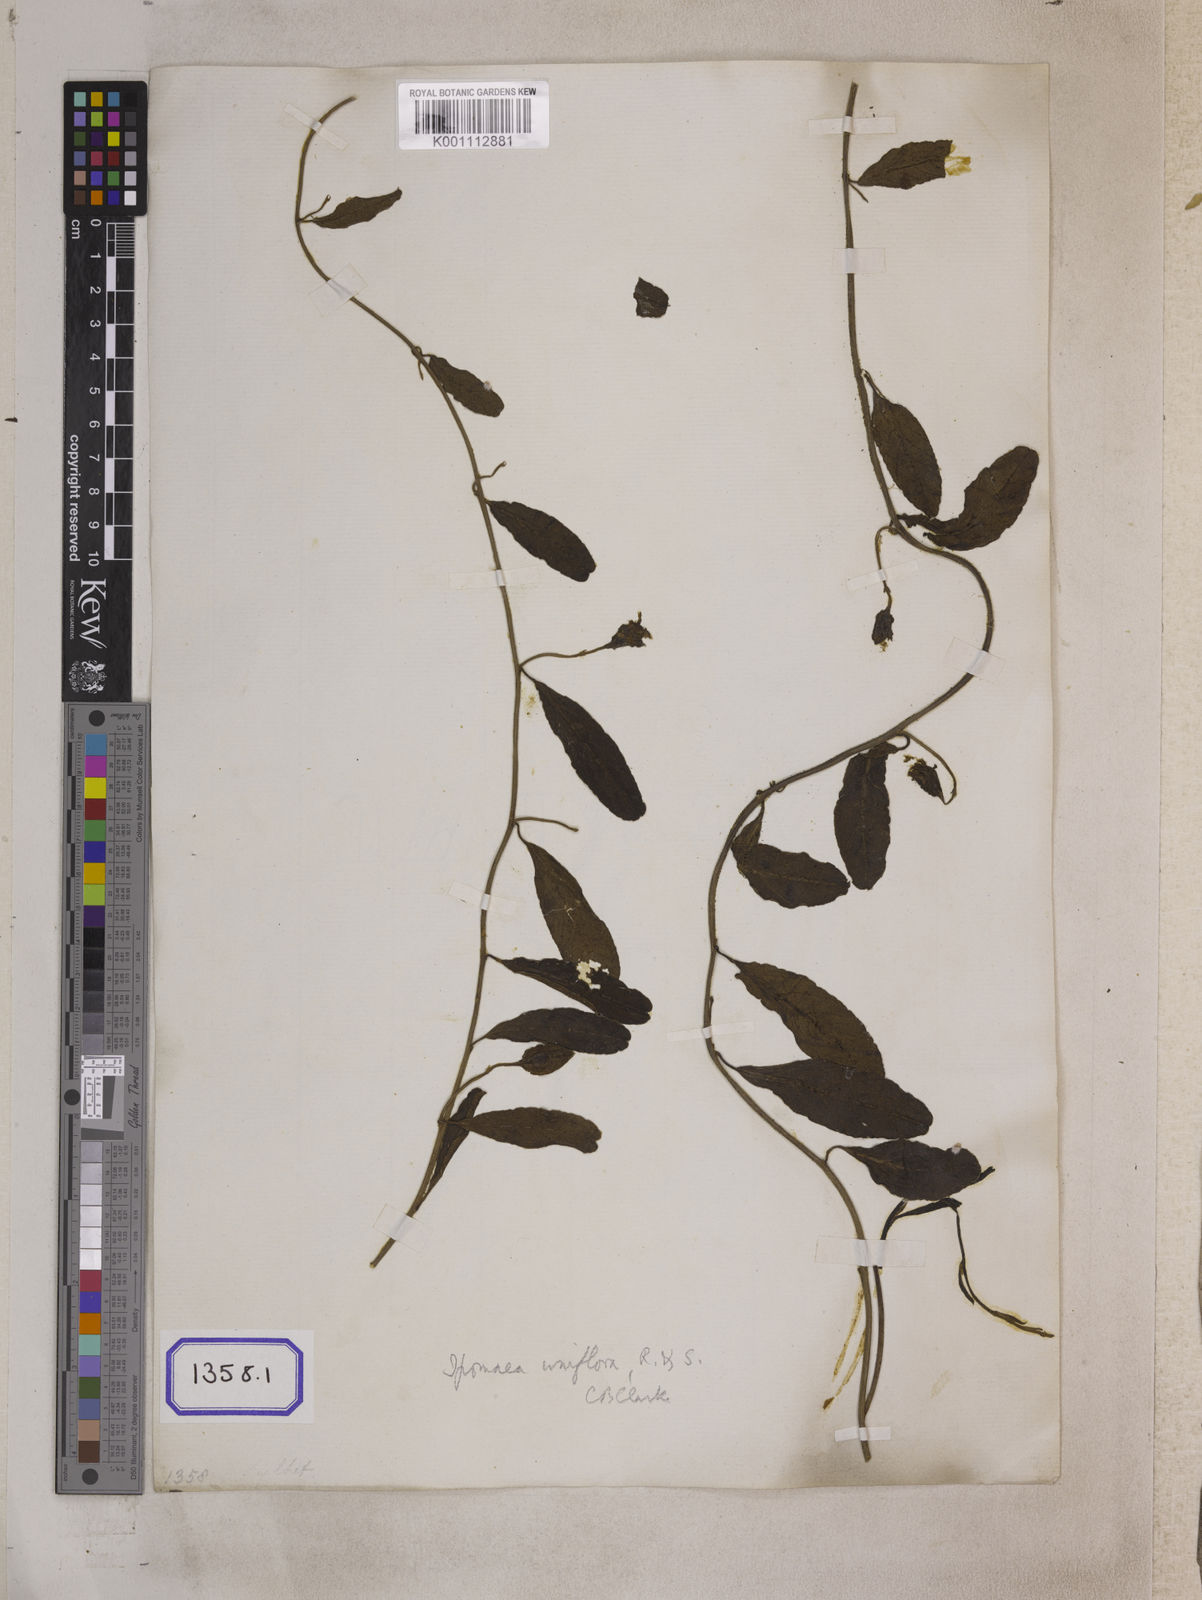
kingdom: Plantae
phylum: Tracheophyta
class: Magnoliopsida
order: Solanales
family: Convolvulaceae
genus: Aniseia
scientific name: Aniseia martinicensis
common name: Kulayadambu
